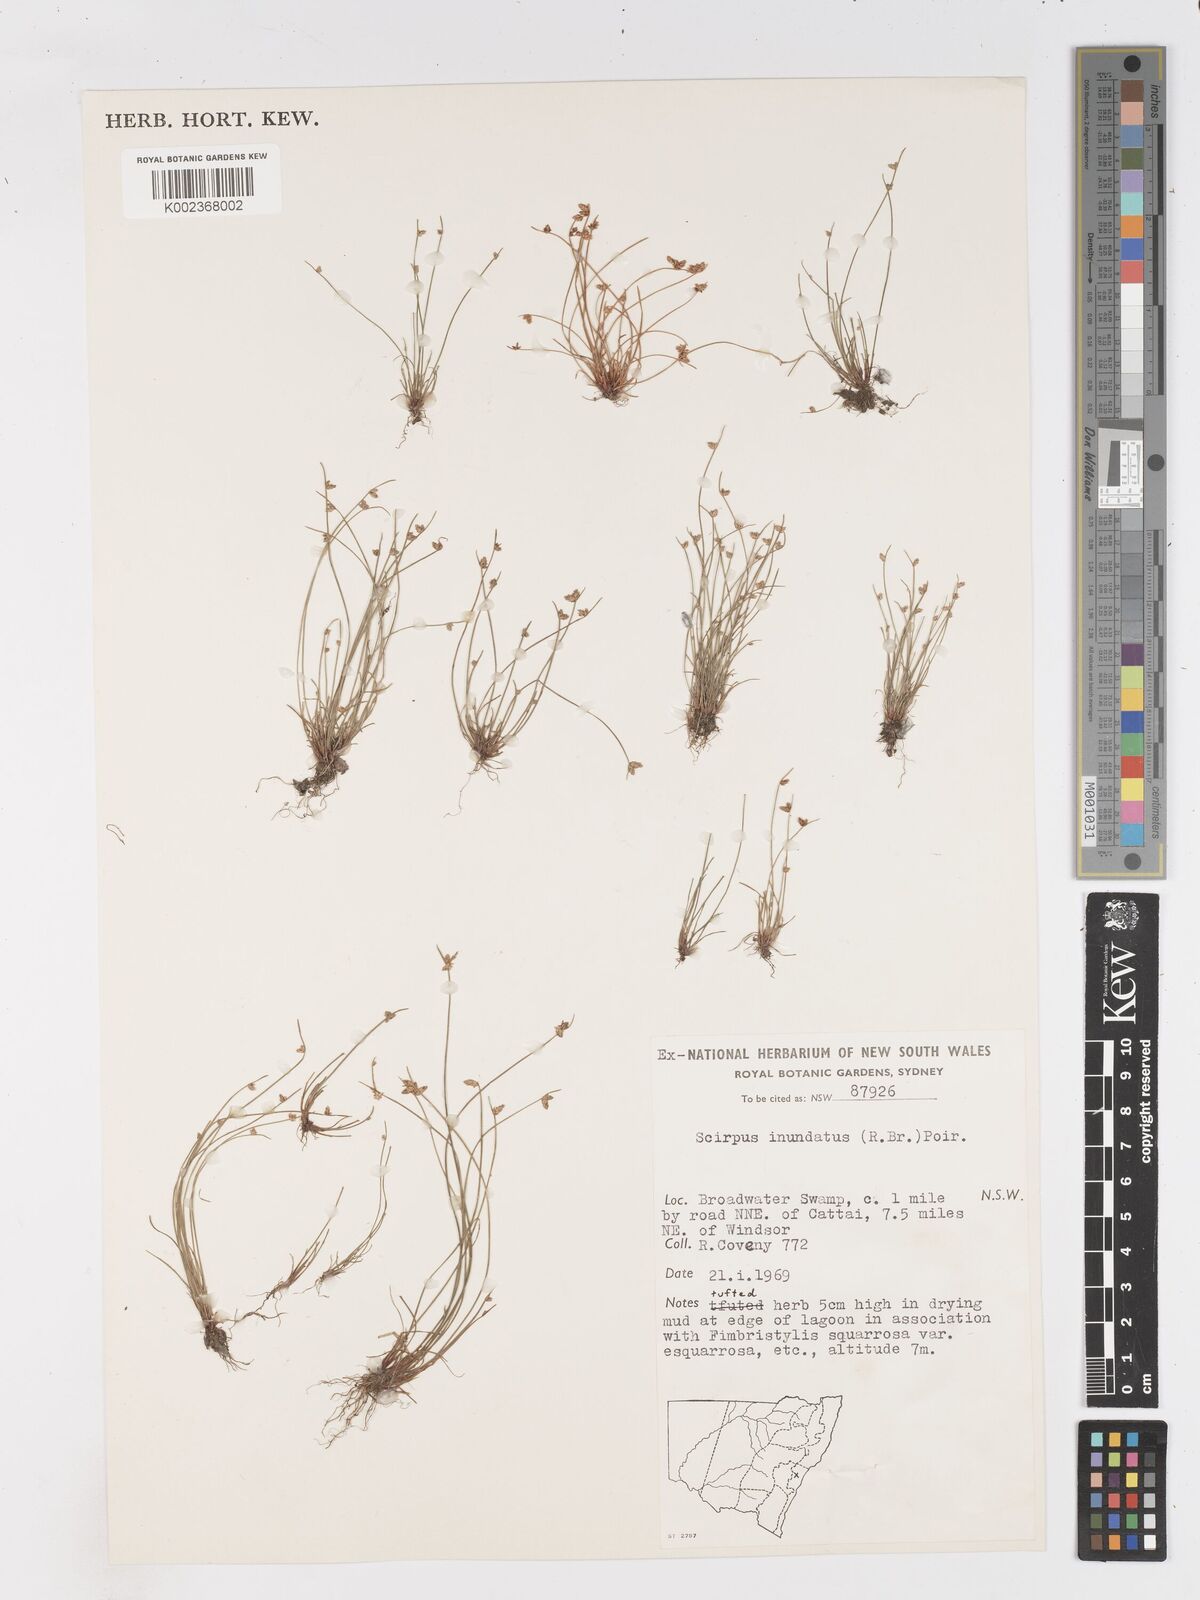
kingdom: Plantae
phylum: Tracheophyta
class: Liliopsida
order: Poales
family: Cyperaceae
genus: Isolepis
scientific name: Isolepis inundata
